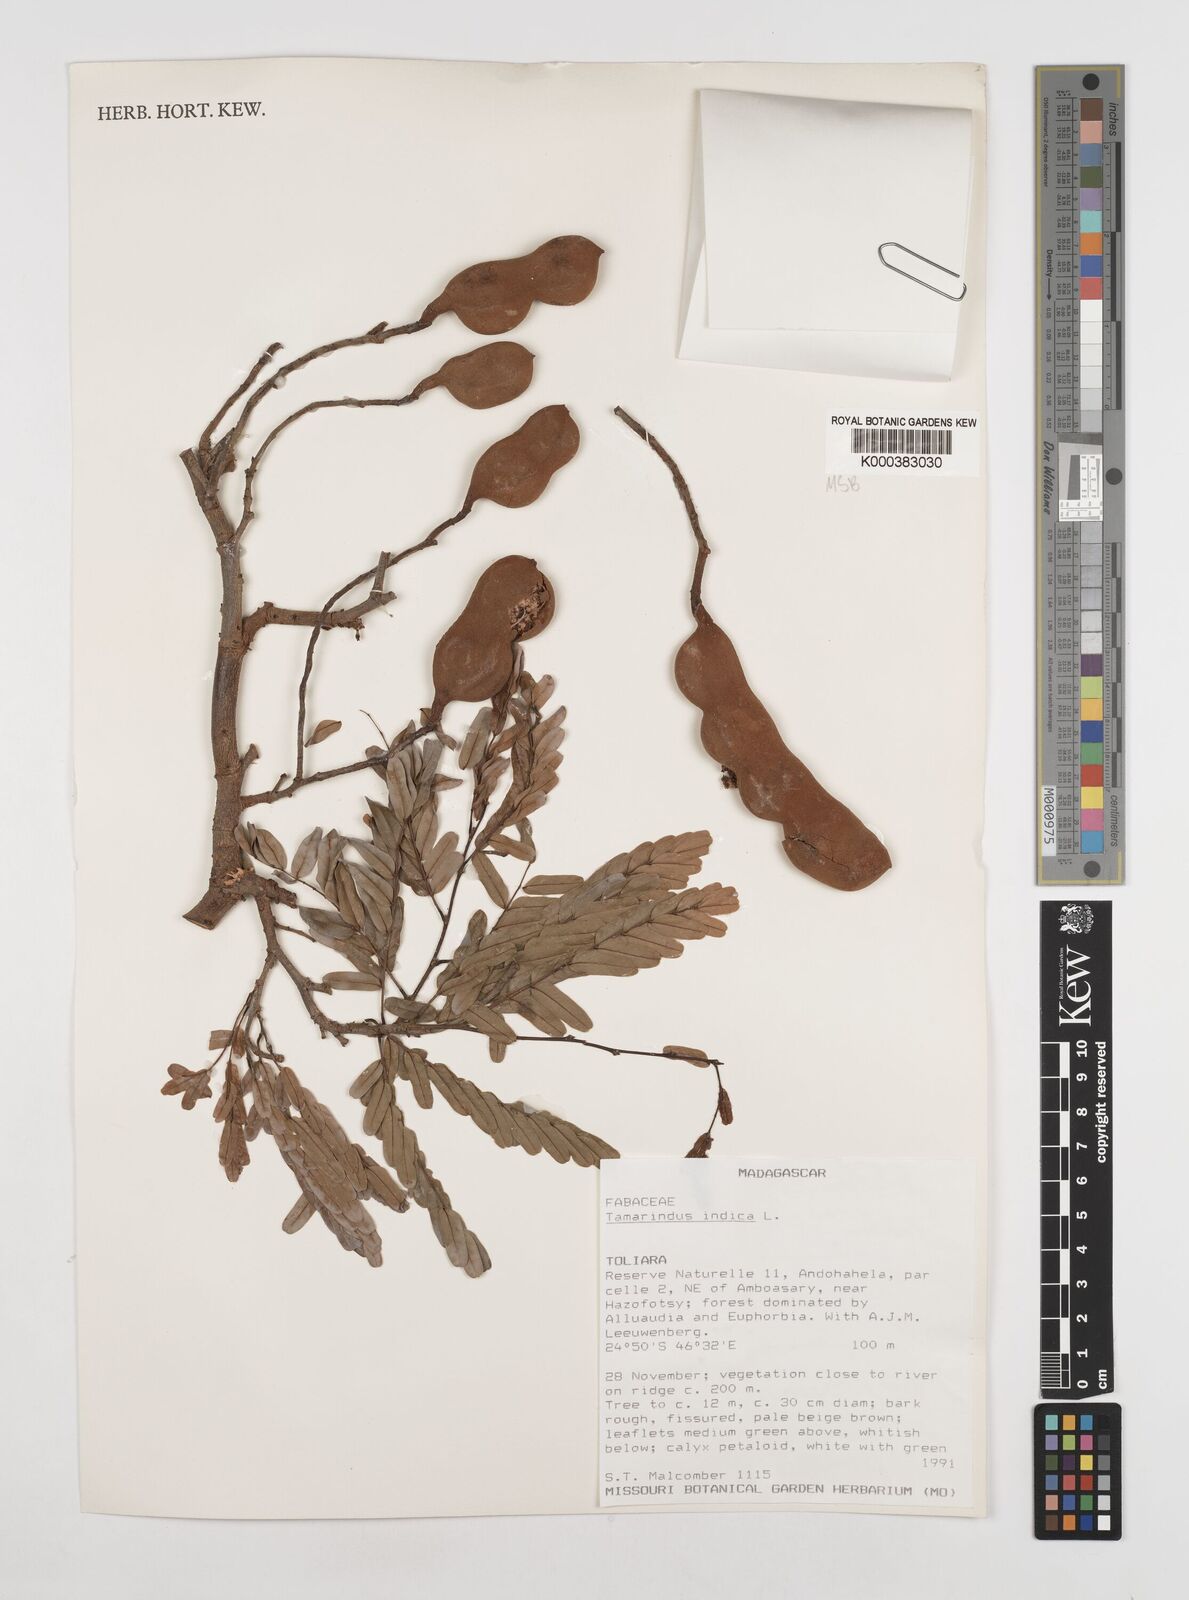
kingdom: Plantae
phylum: Tracheophyta
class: Magnoliopsida
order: Fabales
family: Fabaceae
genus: Tamarindus
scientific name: Tamarindus indica
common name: Tamarind
